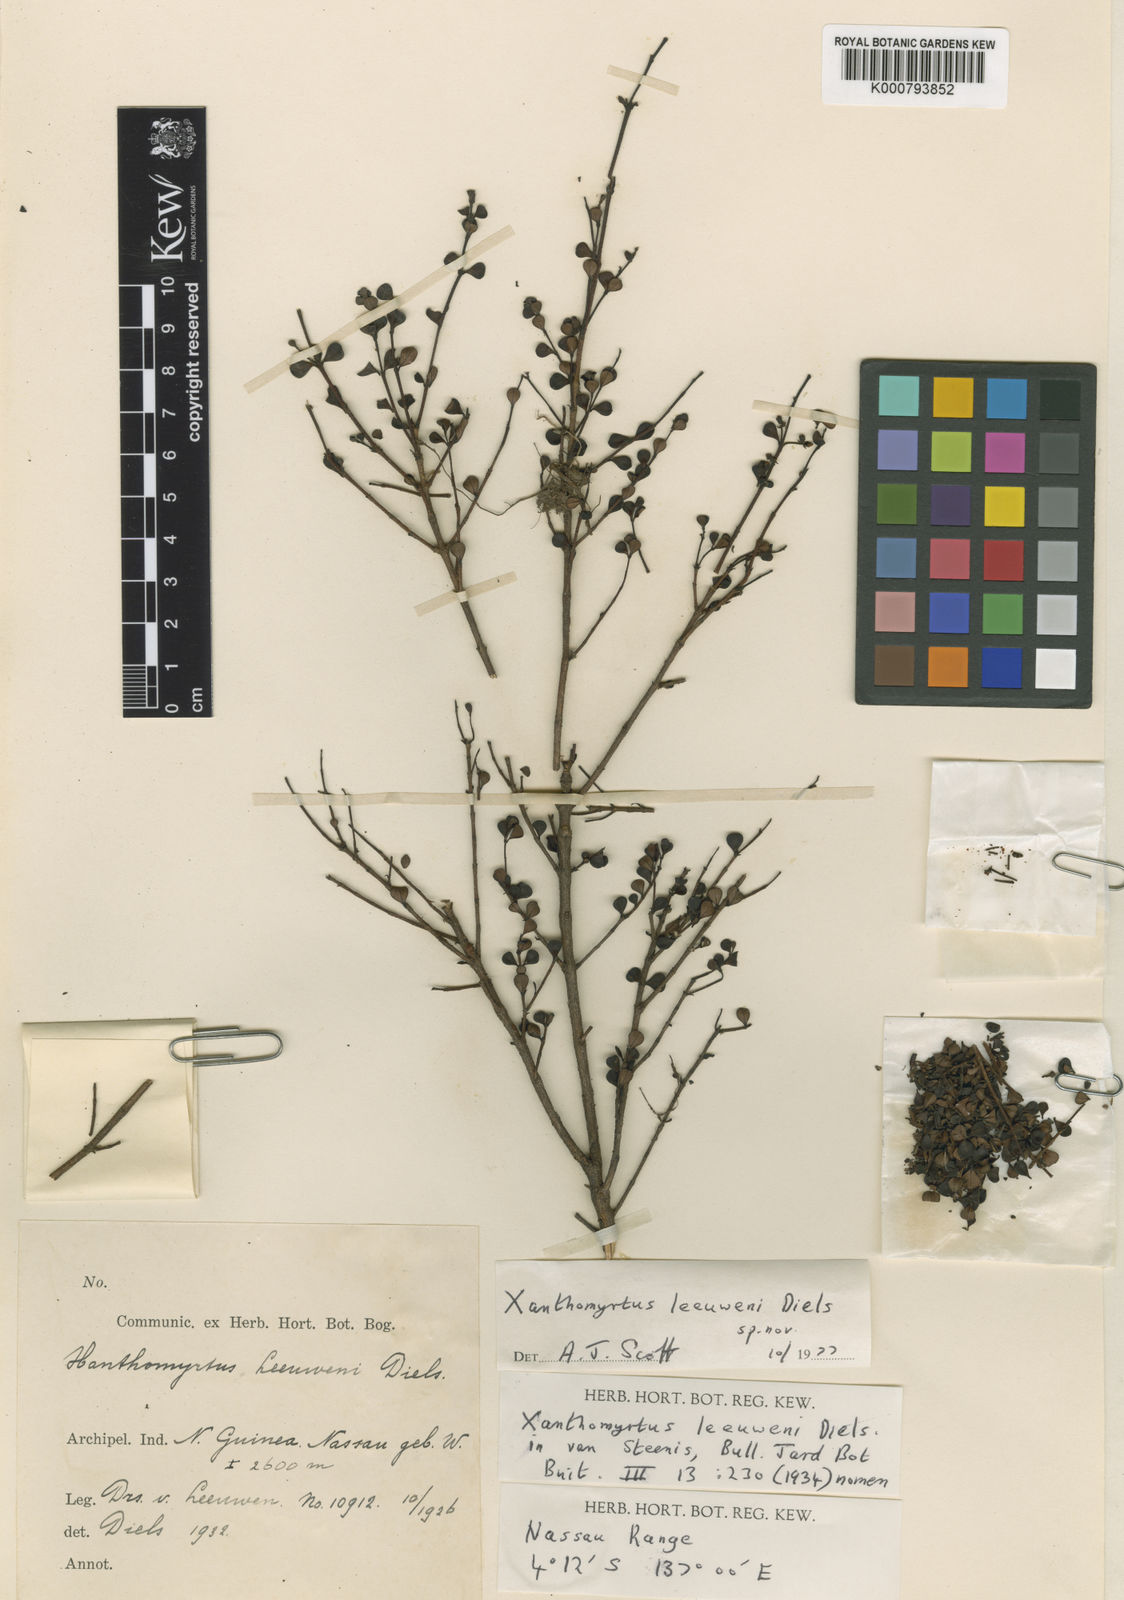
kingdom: Plantae
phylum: Tracheophyta
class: Magnoliopsida
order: Myrtales
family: Myrtaceae
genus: Xanthomyrtus
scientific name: Xanthomyrtus leeuwenii
